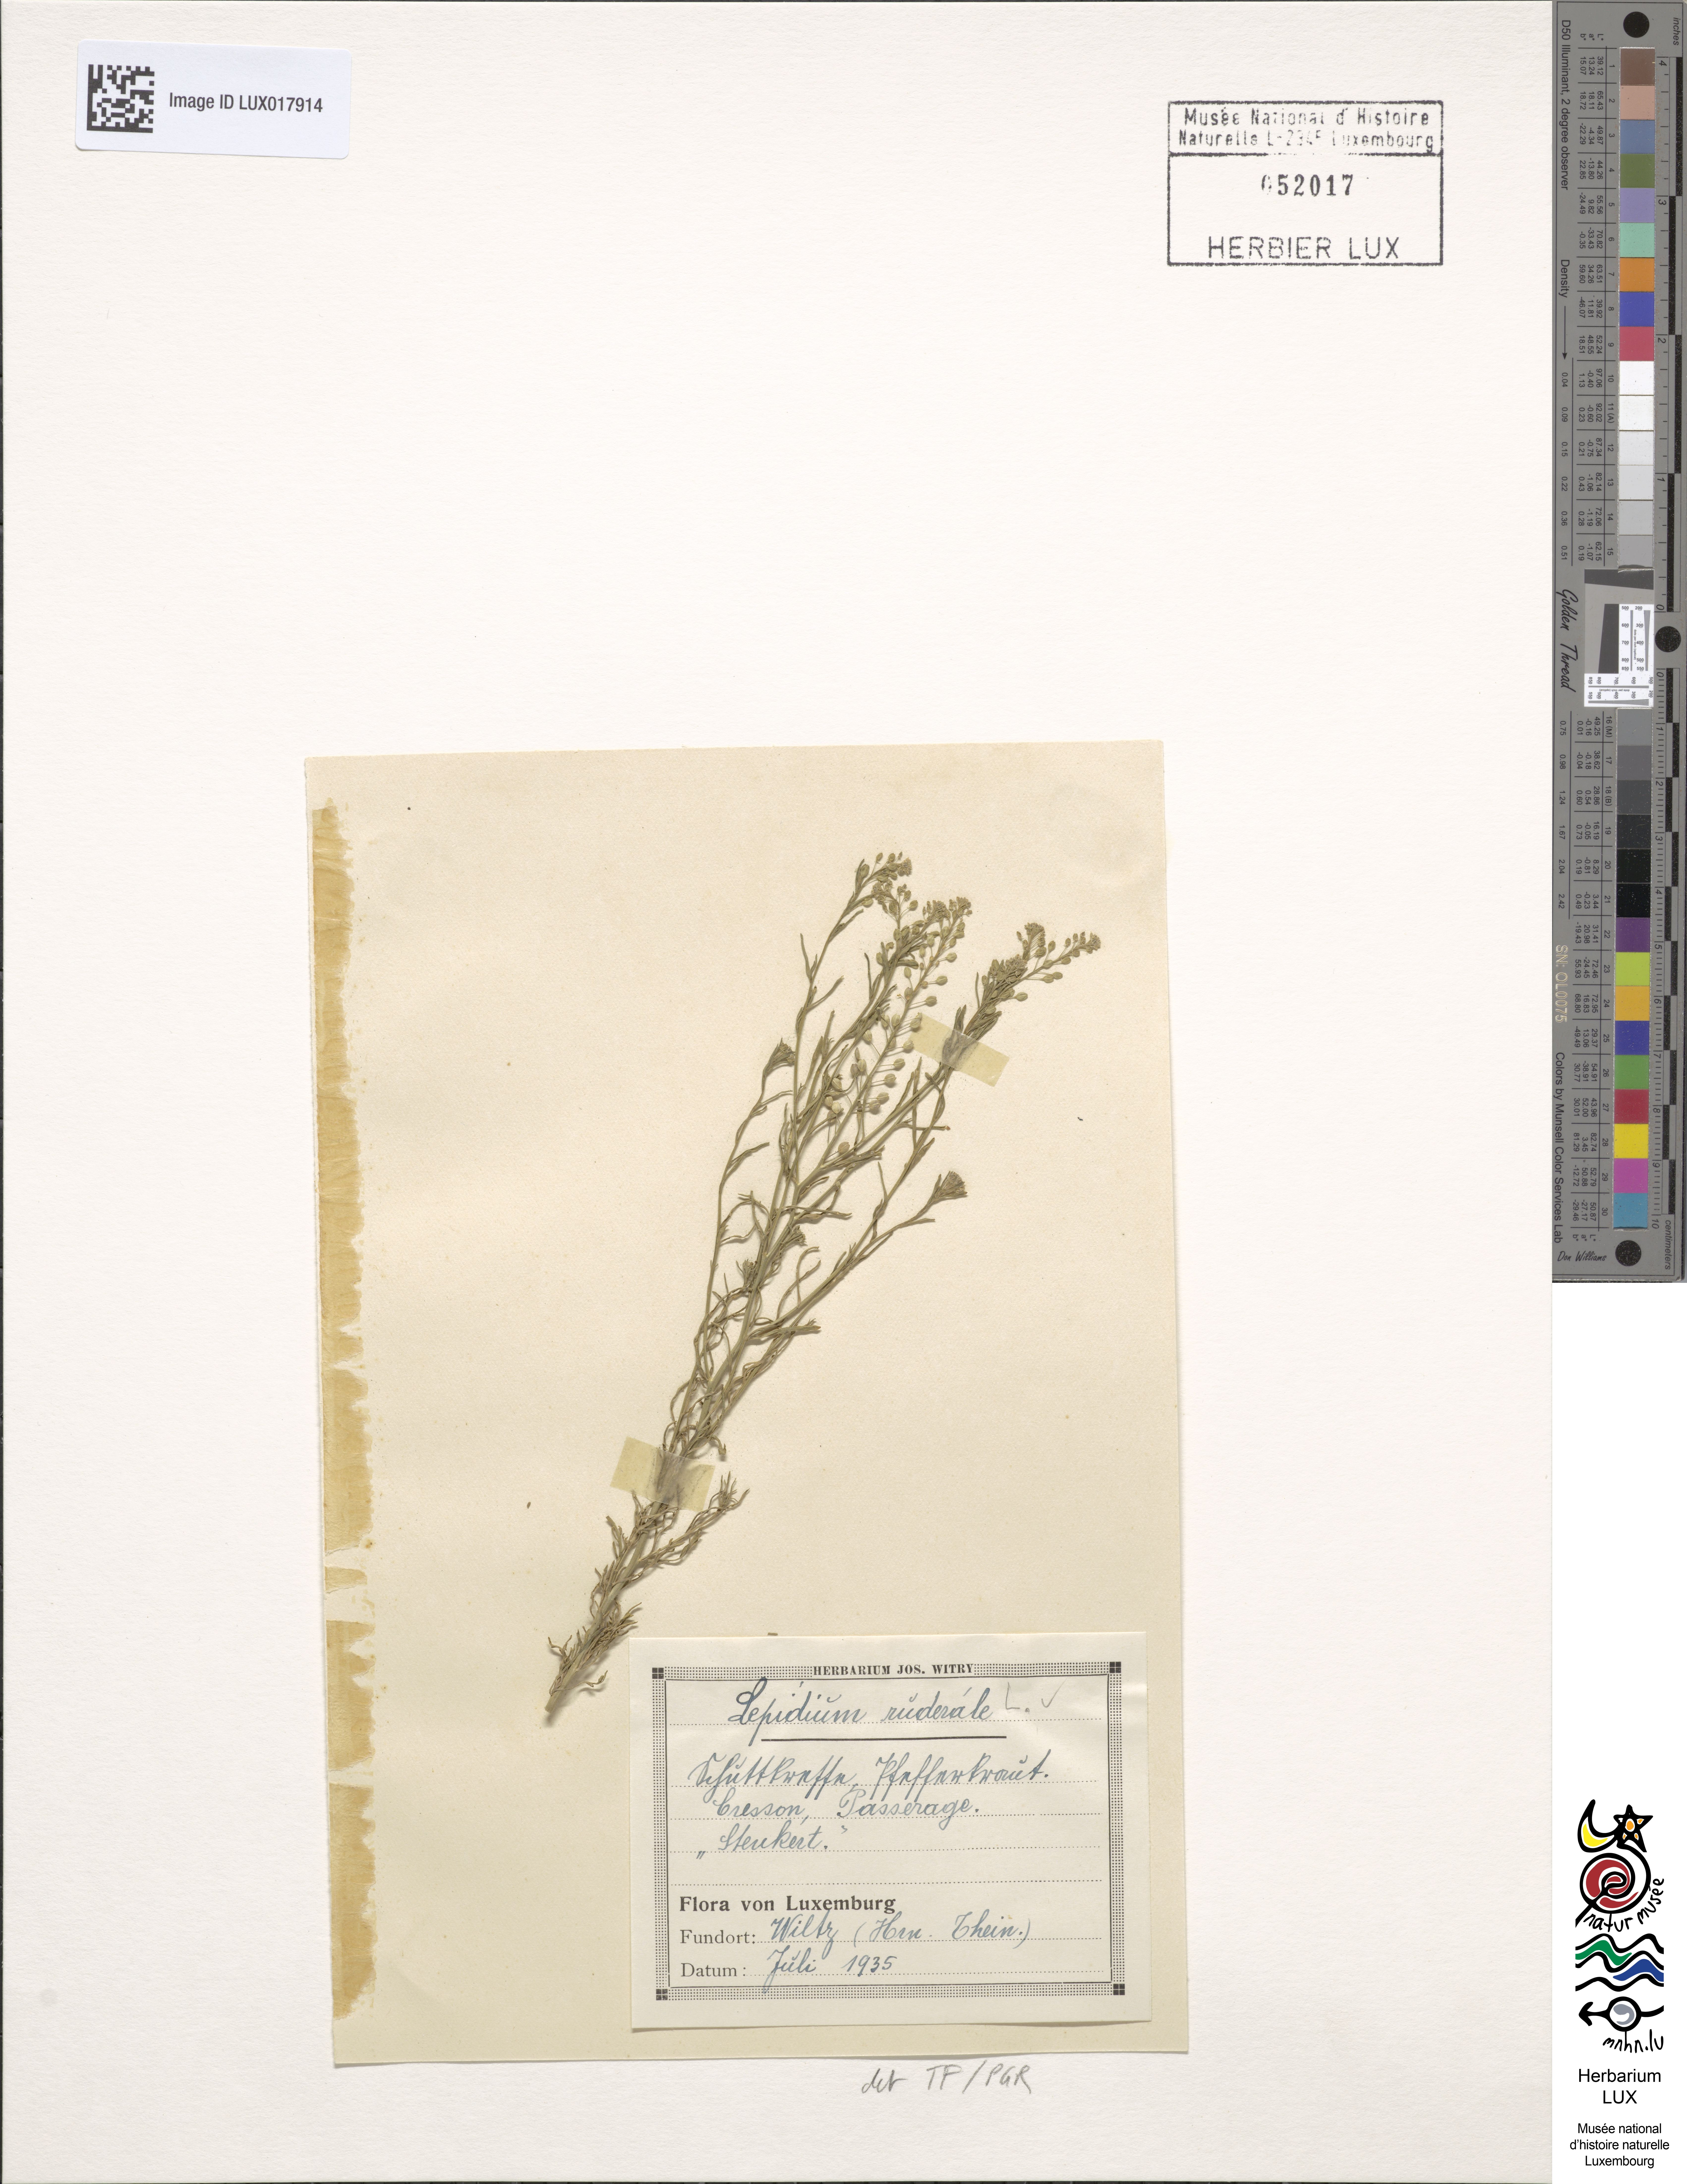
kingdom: Plantae
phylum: Tracheophyta
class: Magnoliopsida
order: Brassicales
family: Brassicaceae
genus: Lepidium
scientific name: Lepidium ruderale
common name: Narrow-leaved pepperwort
